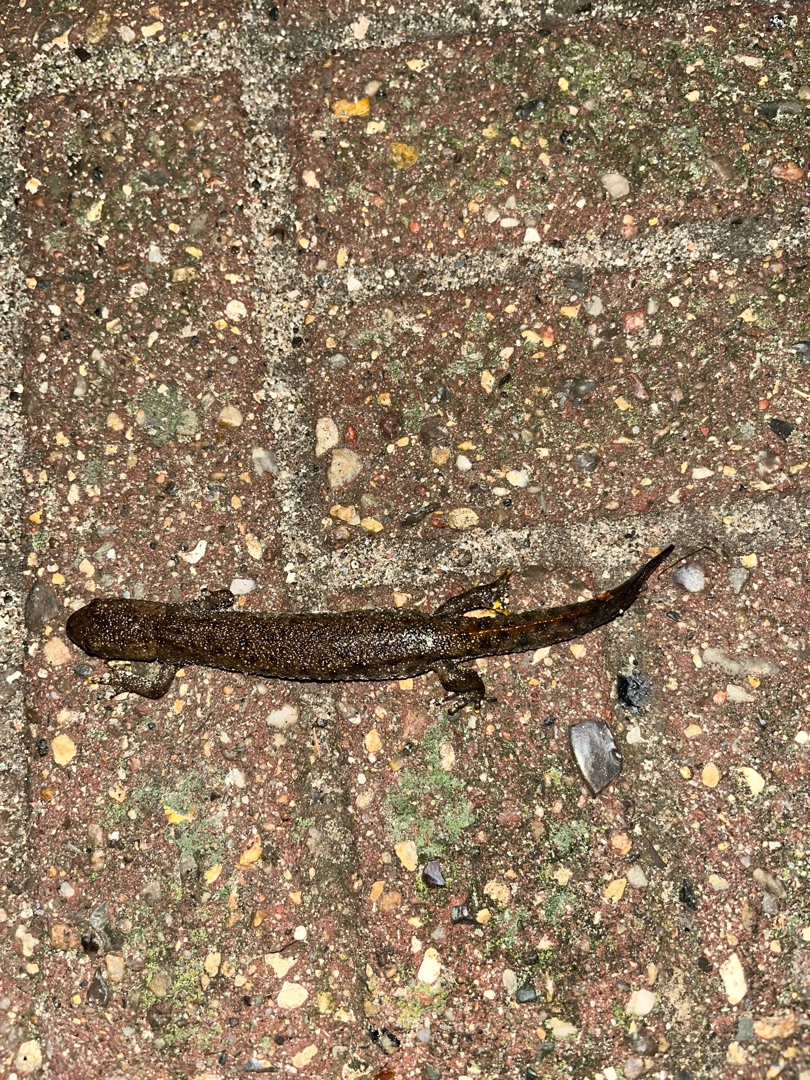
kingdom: Animalia
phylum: Chordata
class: Amphibia
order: Caudata
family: Salamandridae
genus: Triturus
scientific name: Triturus cristatus
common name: Stor vandsalamander
